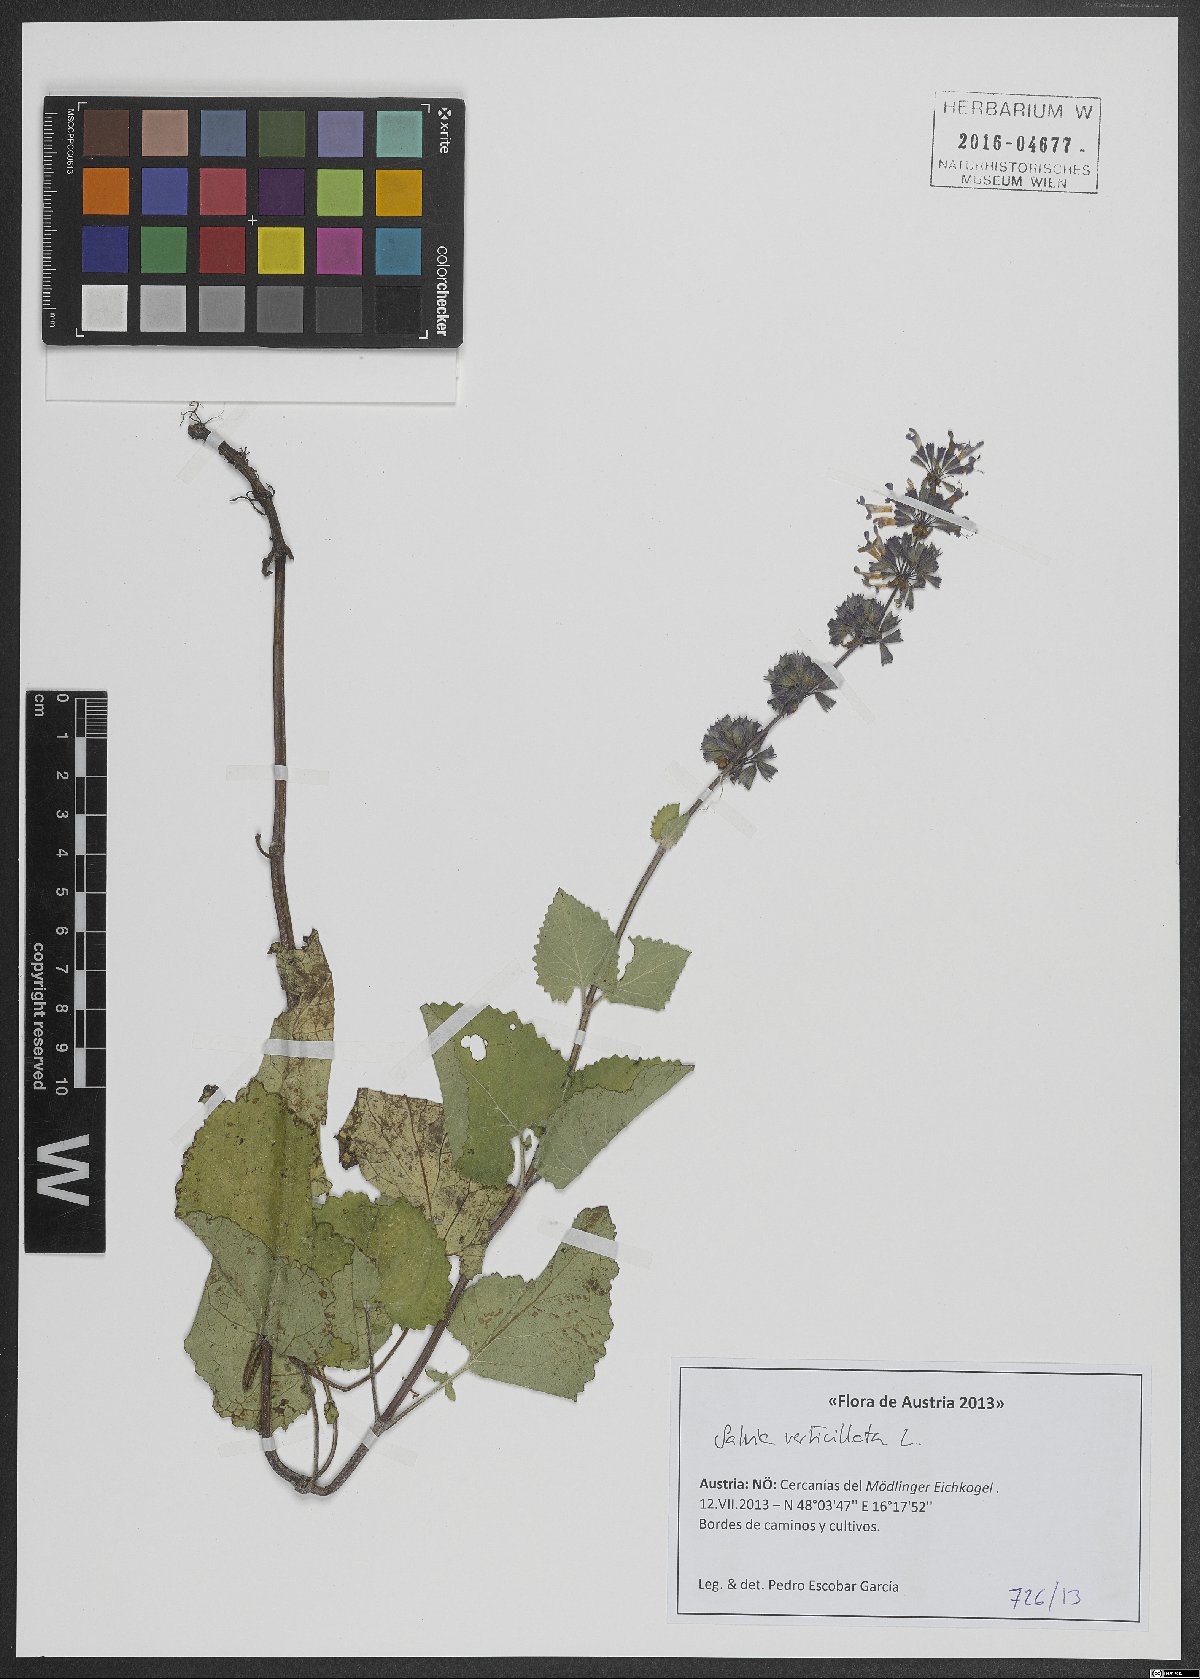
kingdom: Plantae
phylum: Tracheophyta
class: Magnoliopsida
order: Lamiales
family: Lamiaceae
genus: Salvia
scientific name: Salvia verticillata
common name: Whorled clary
